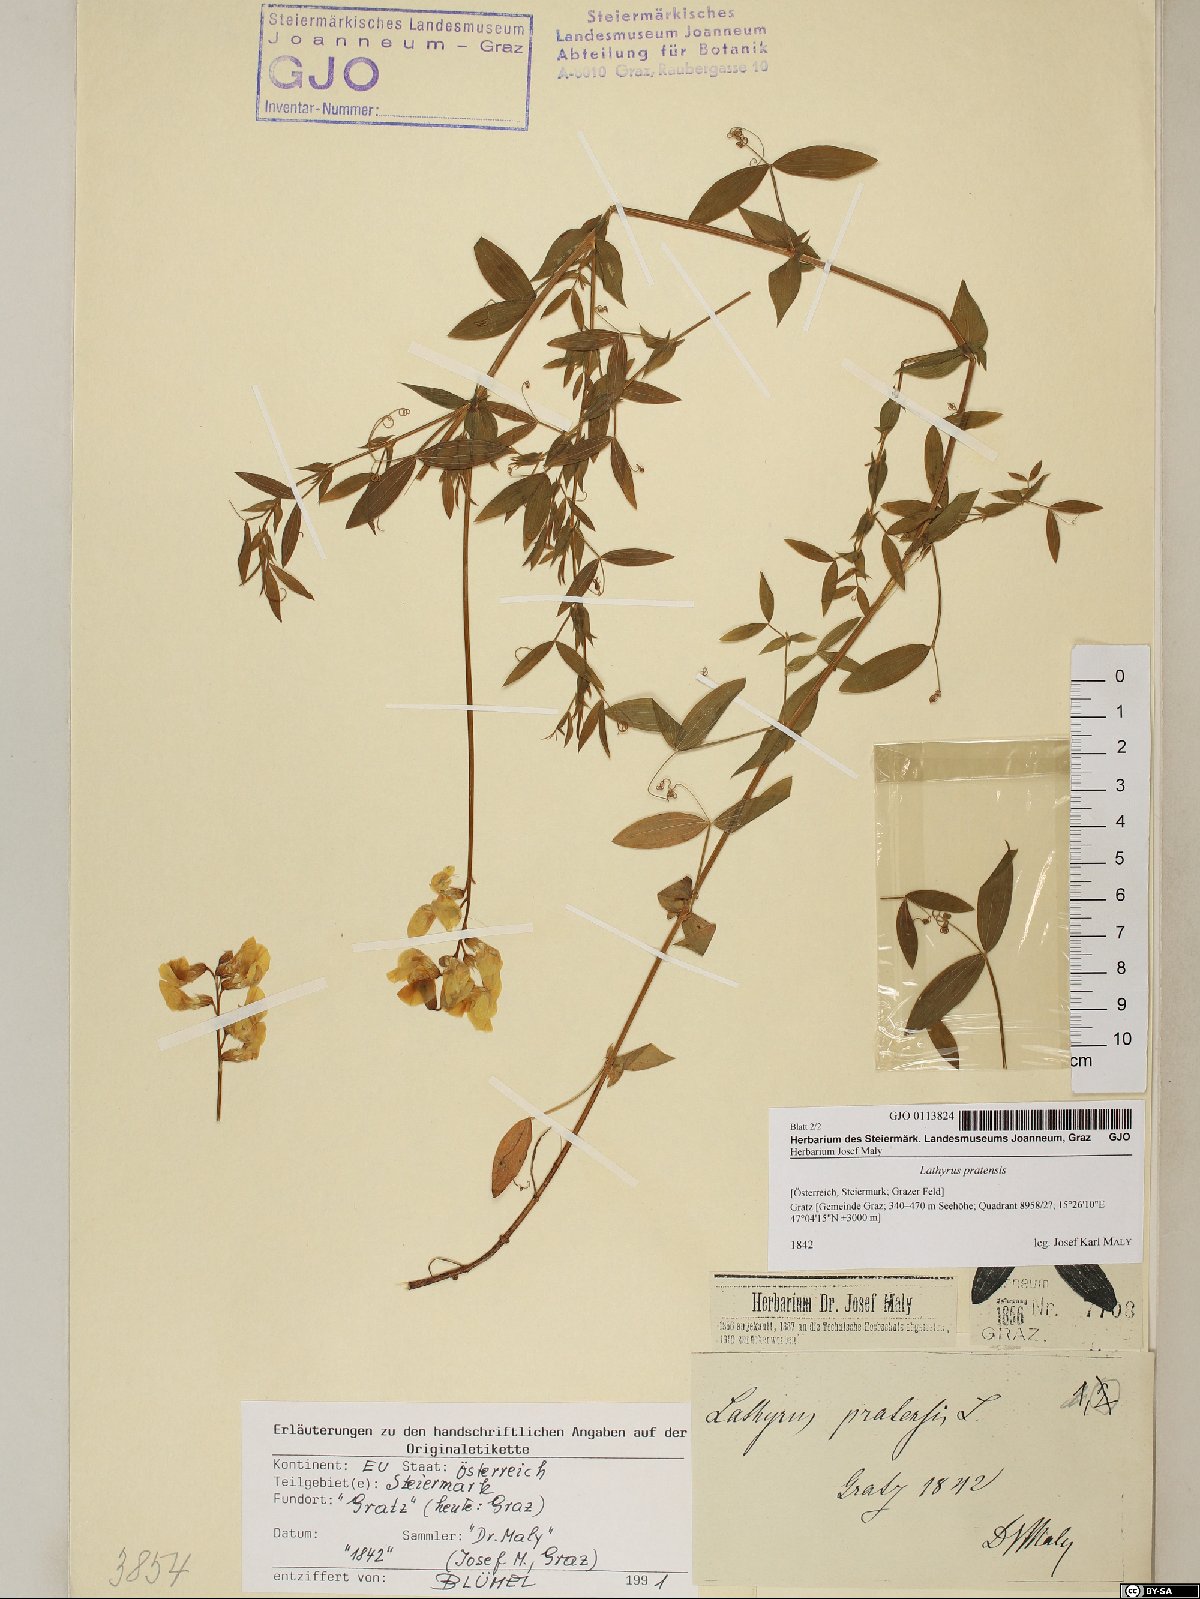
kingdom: Plantae
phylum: Tracheophyta
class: Magnoliopsida
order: Fabales
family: Fabaceae
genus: Lathyrus
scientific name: Lathyrus pratensis
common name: Meadow vetchling
